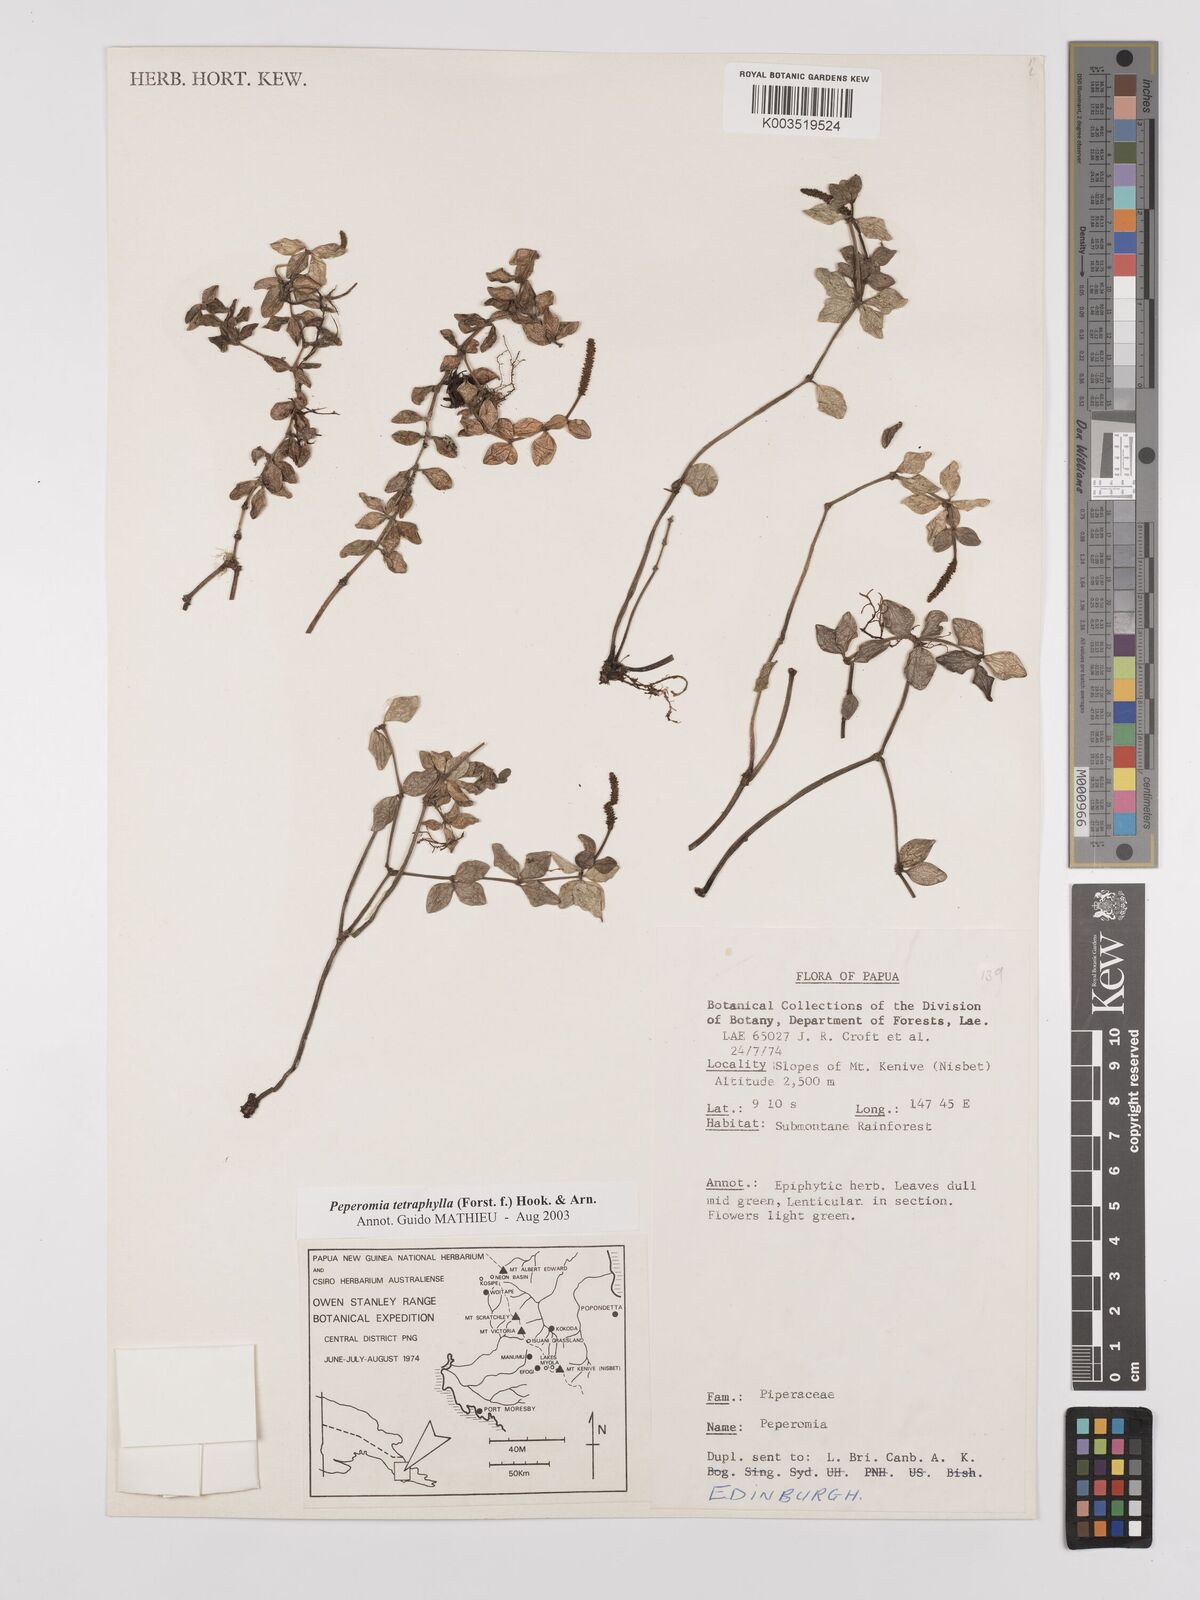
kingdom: Plantae
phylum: Tracheophyta
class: Magnoliopsida
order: Piperales
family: Piperaceae
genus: Peperomia
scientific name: Peperomia tetraphylla
